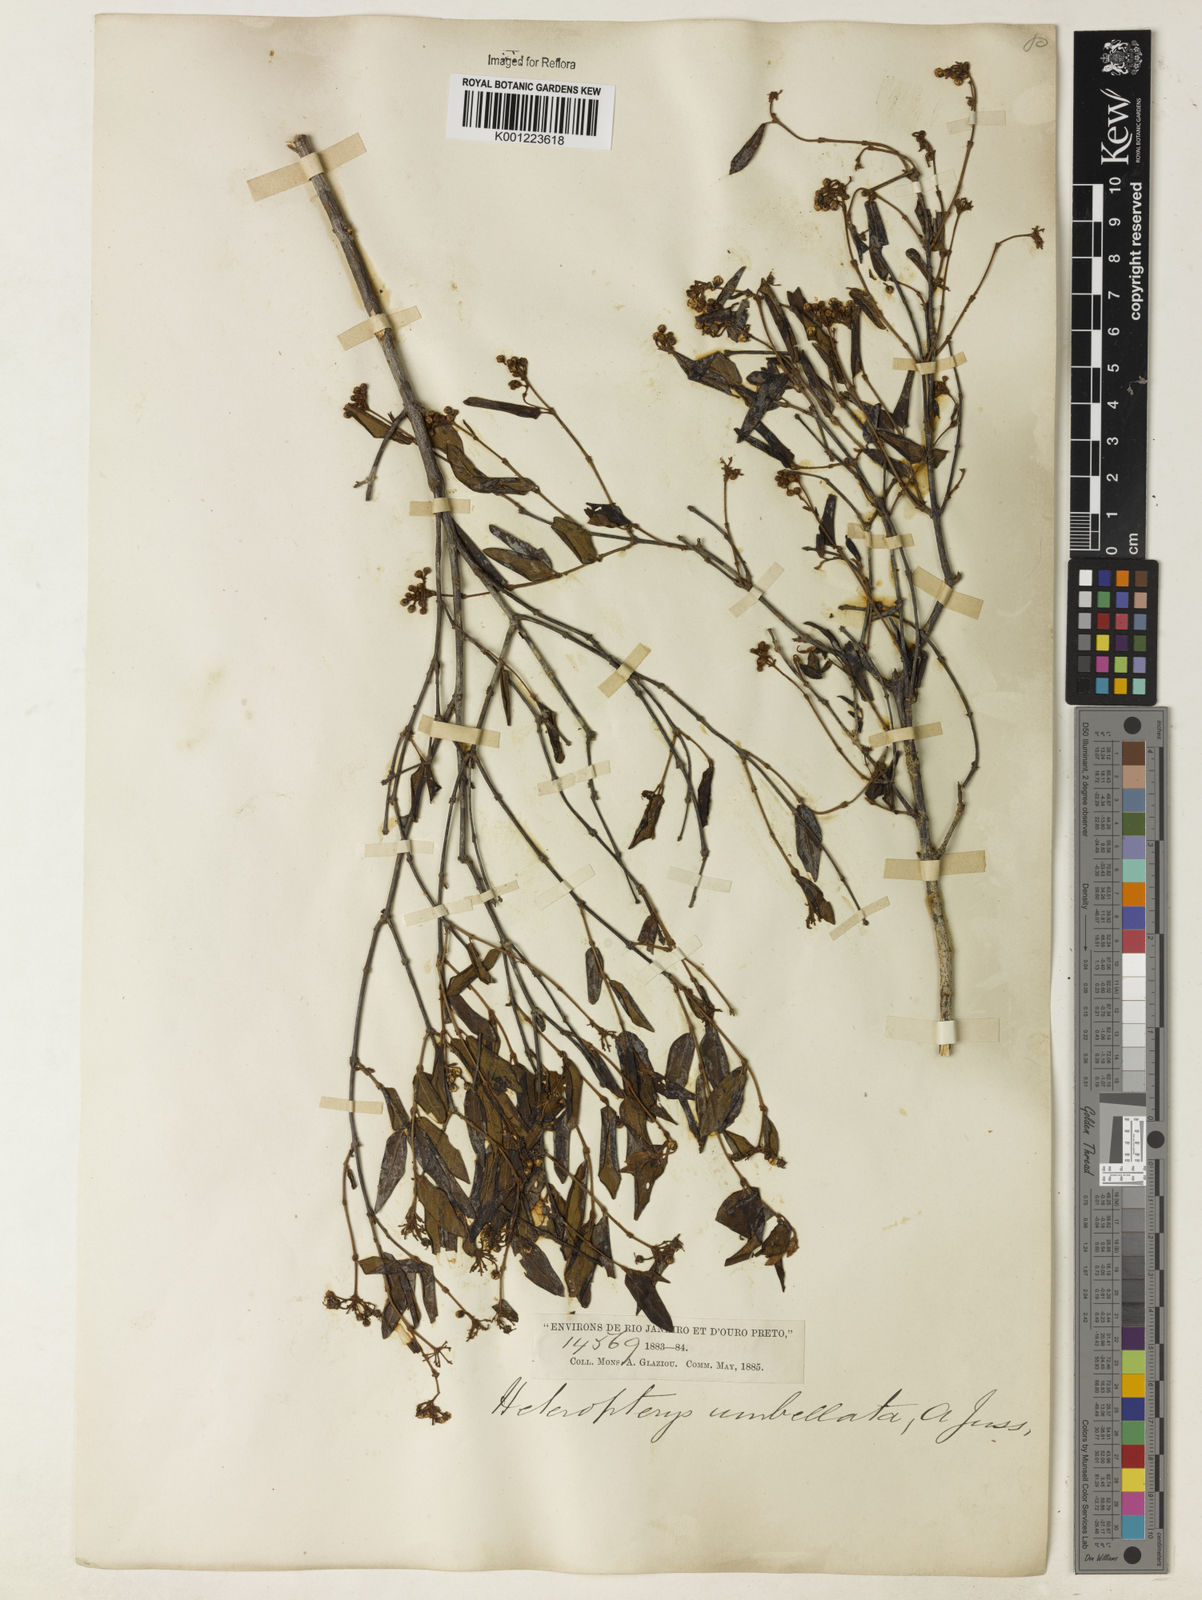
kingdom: Plantae
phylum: Tracheophyta
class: Magnoliopsida
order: Malpighiales
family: Malpighiaceae
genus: Heteropterys
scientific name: Heteropterys umbellata
